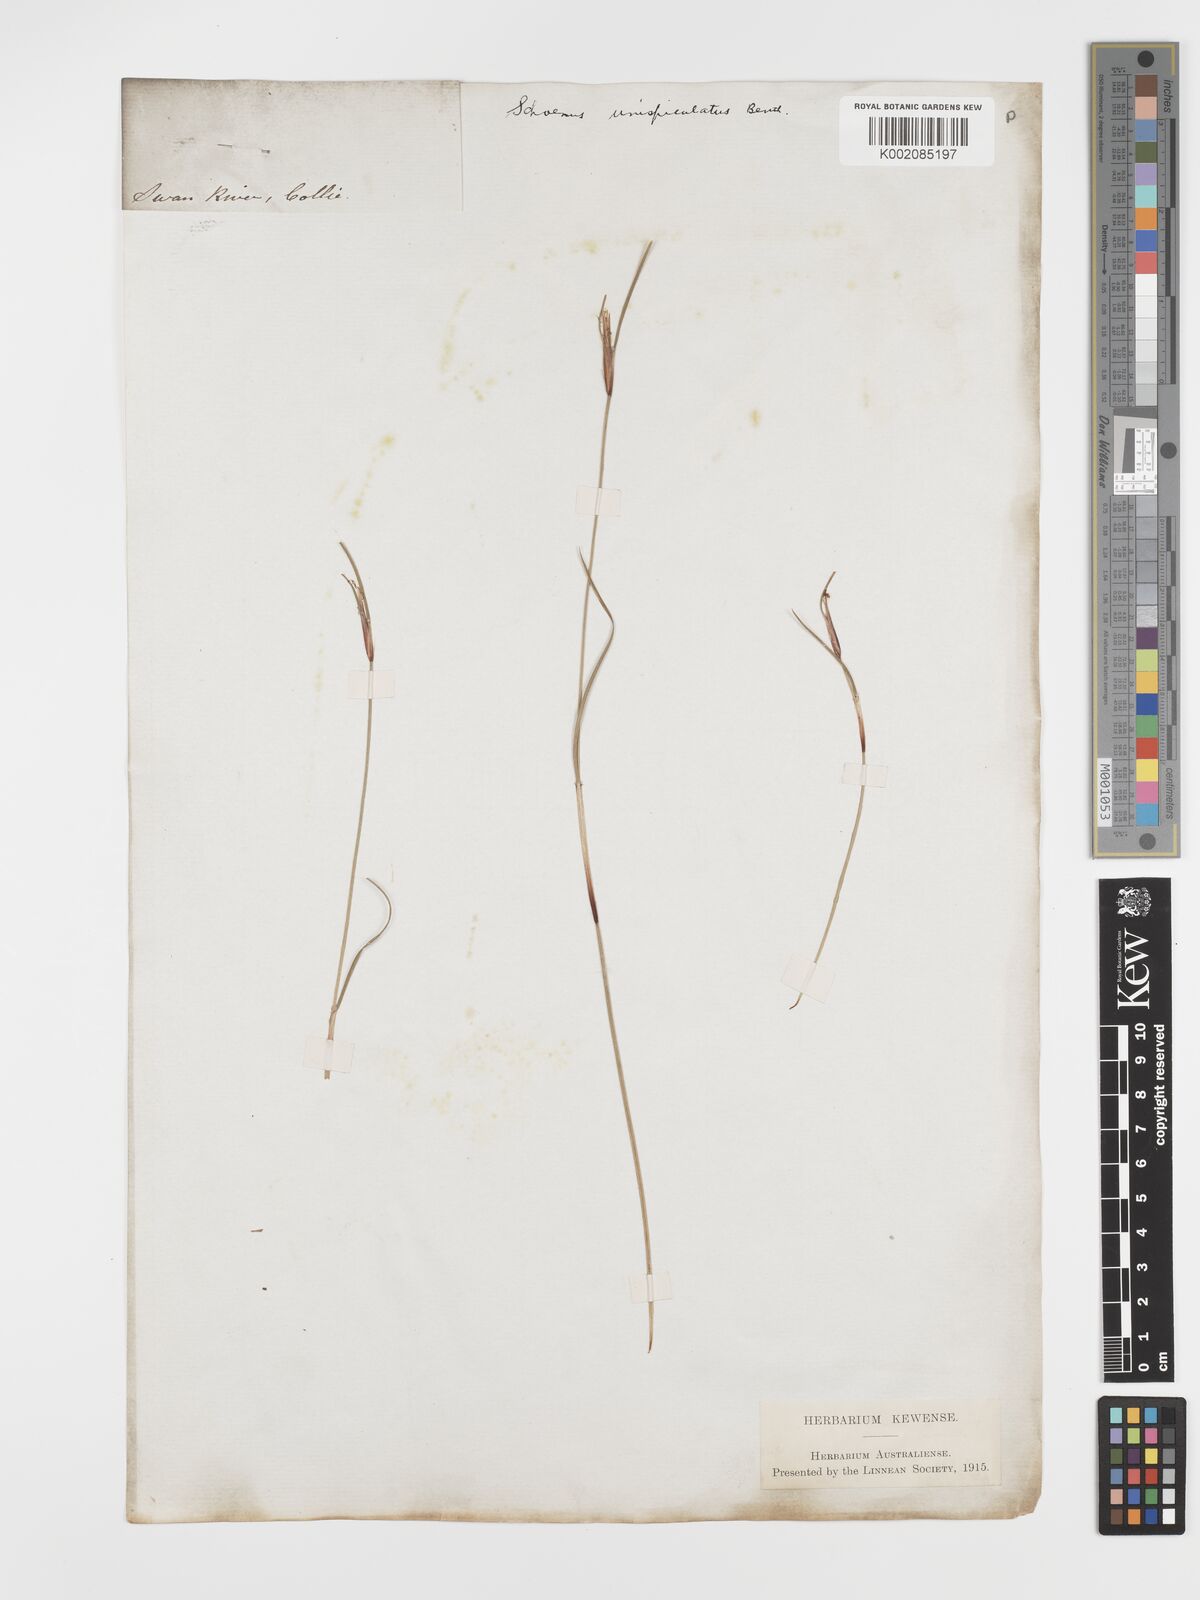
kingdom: Plantae
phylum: Tracheophyta
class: Liliopsida
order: Poales
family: Cyperaceae
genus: Schoenus
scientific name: Schoenus unispiculatus
